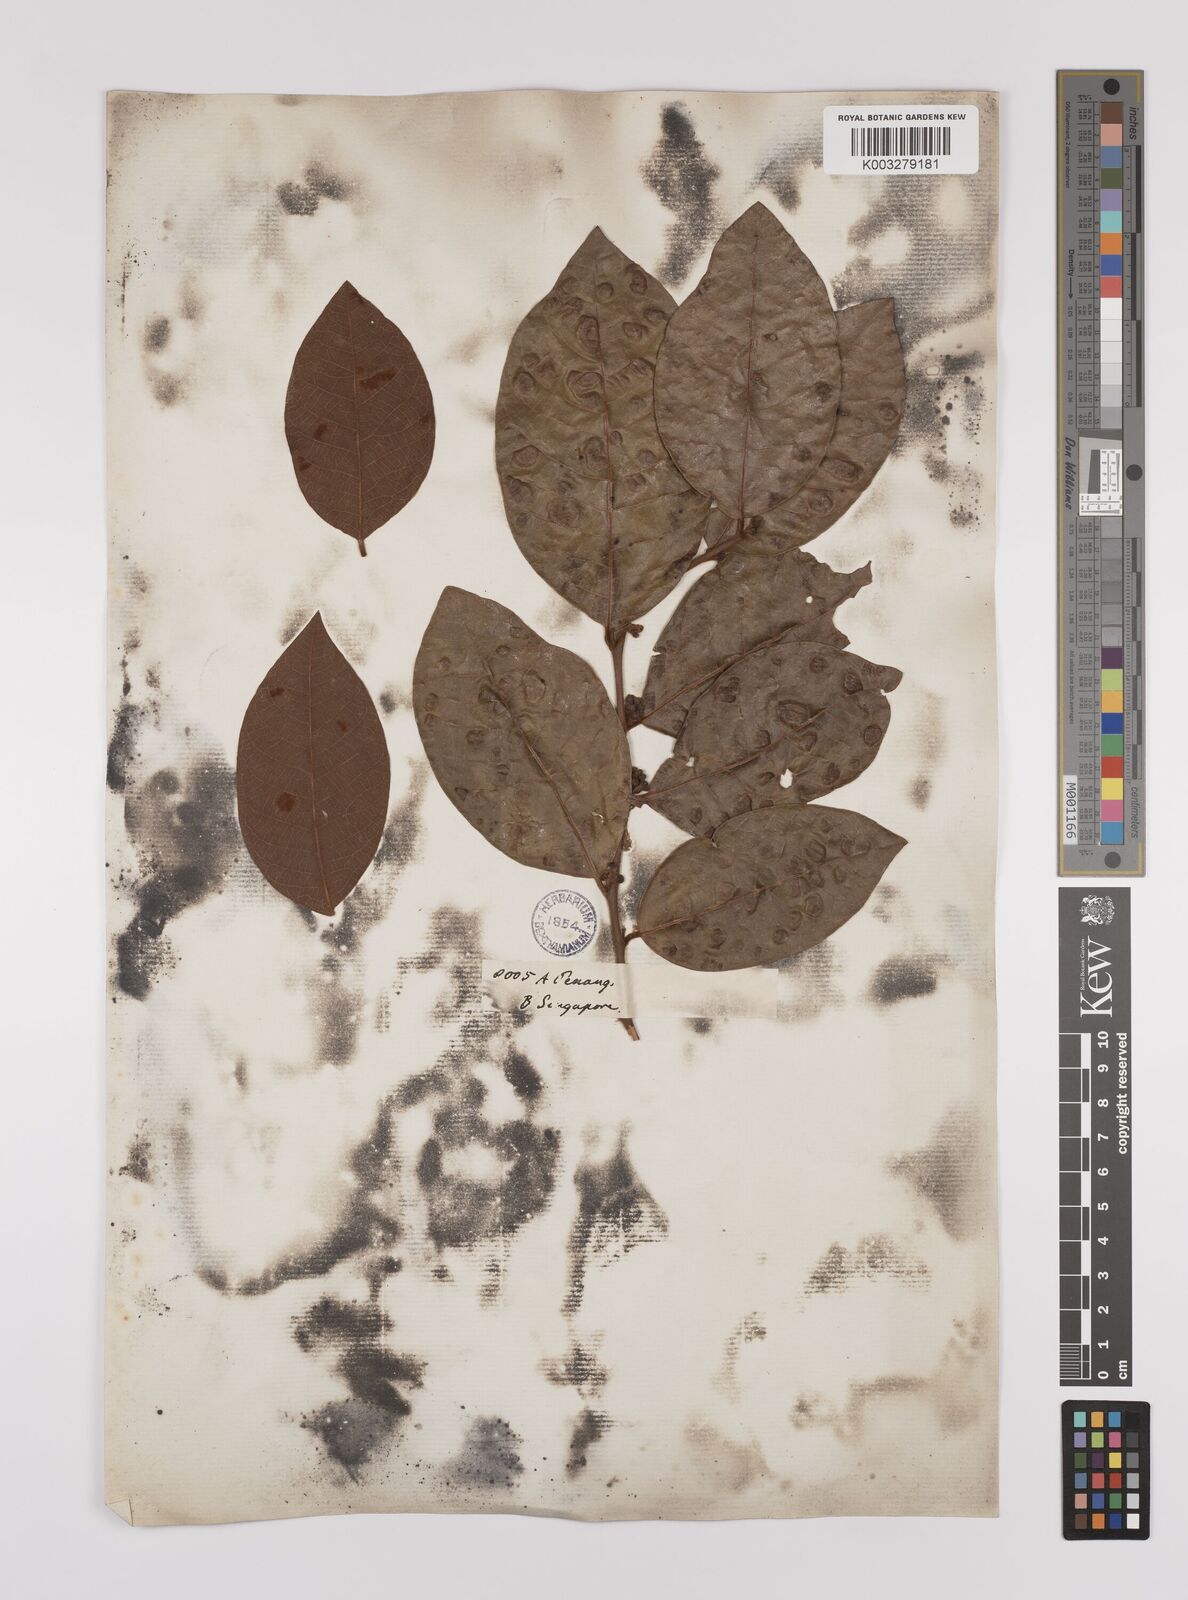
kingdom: Plantae
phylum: Tracheophyta
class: Magnoliopsida
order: Laurales
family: Lauraceae
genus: Litsea
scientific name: Litsea umbellata
